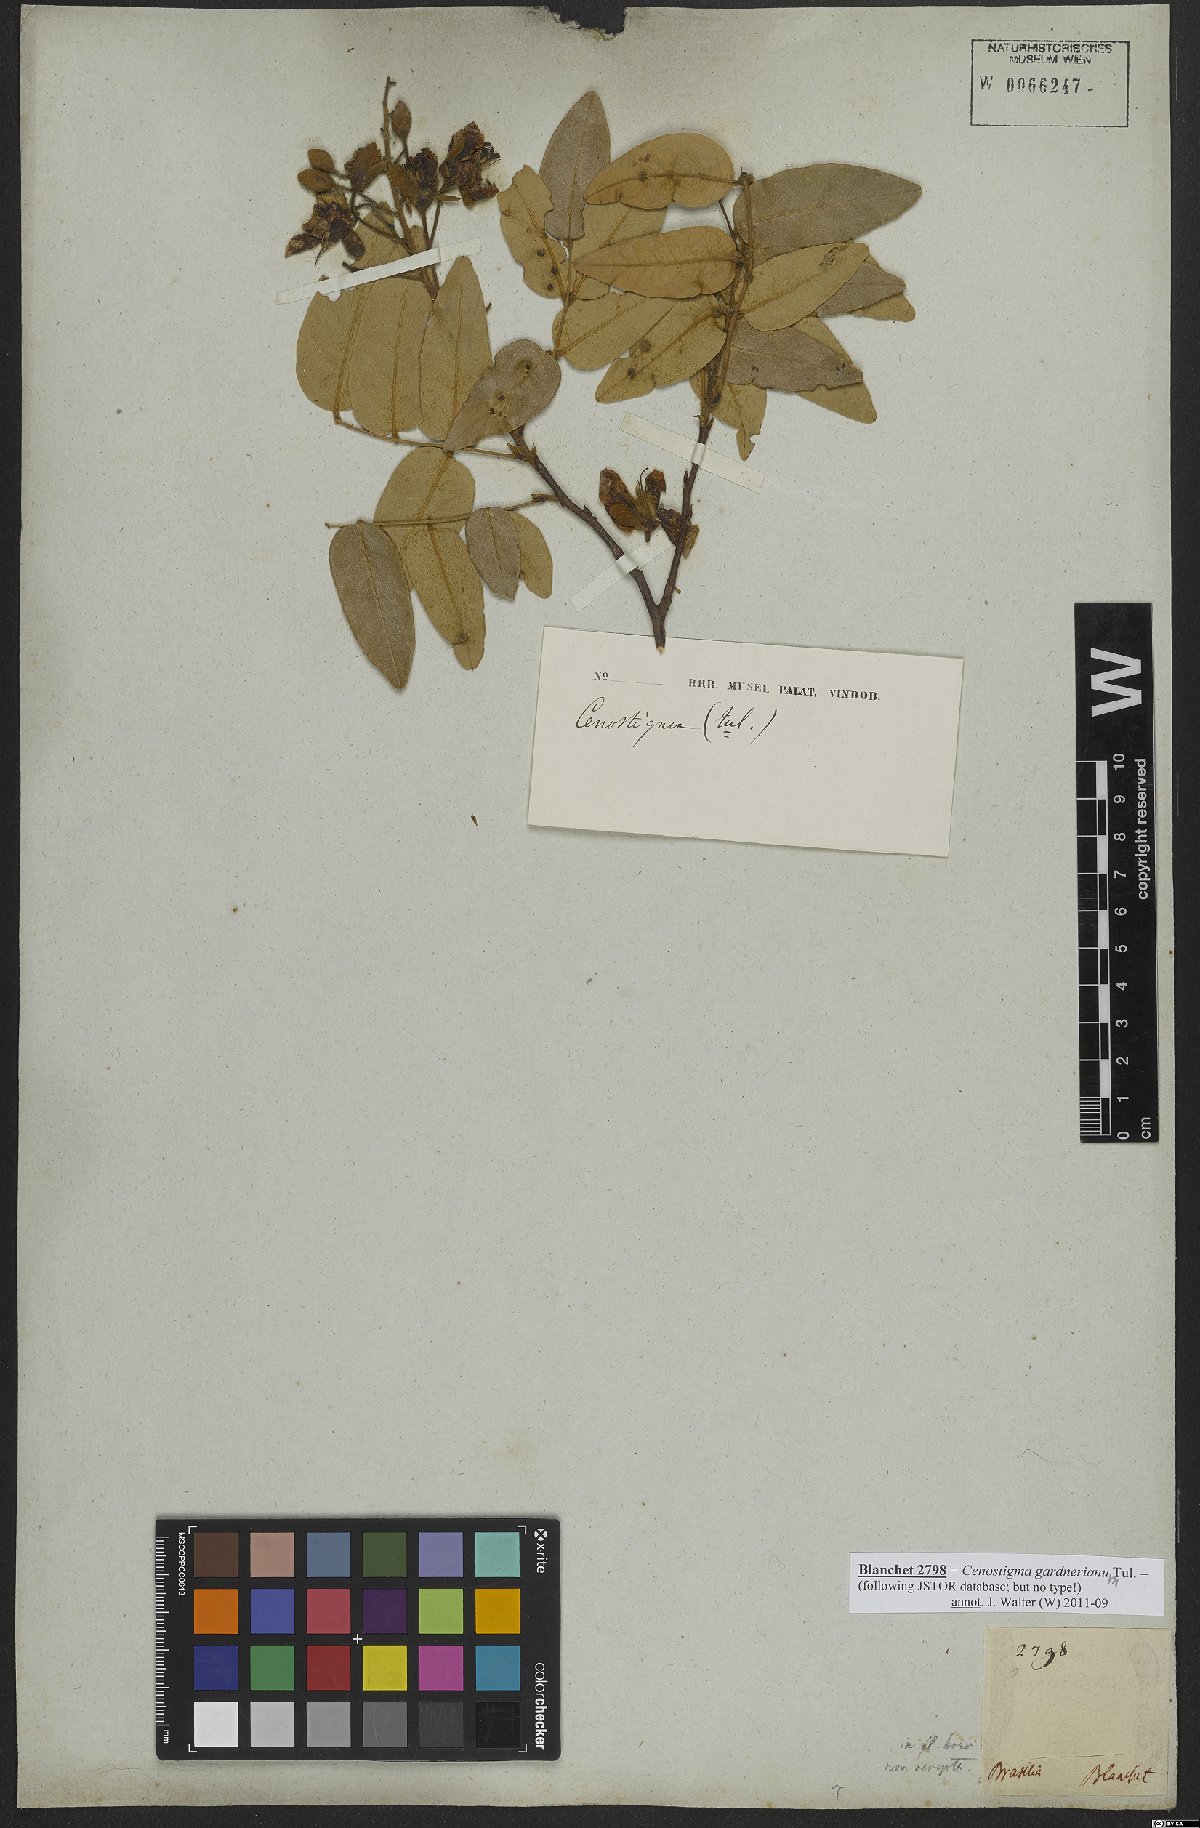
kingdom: Plantae
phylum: Tracheophyta
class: Magnoliopsida
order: Fabales
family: Fabaceae
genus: Cenostigma
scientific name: Cenostigma macrophyllum
